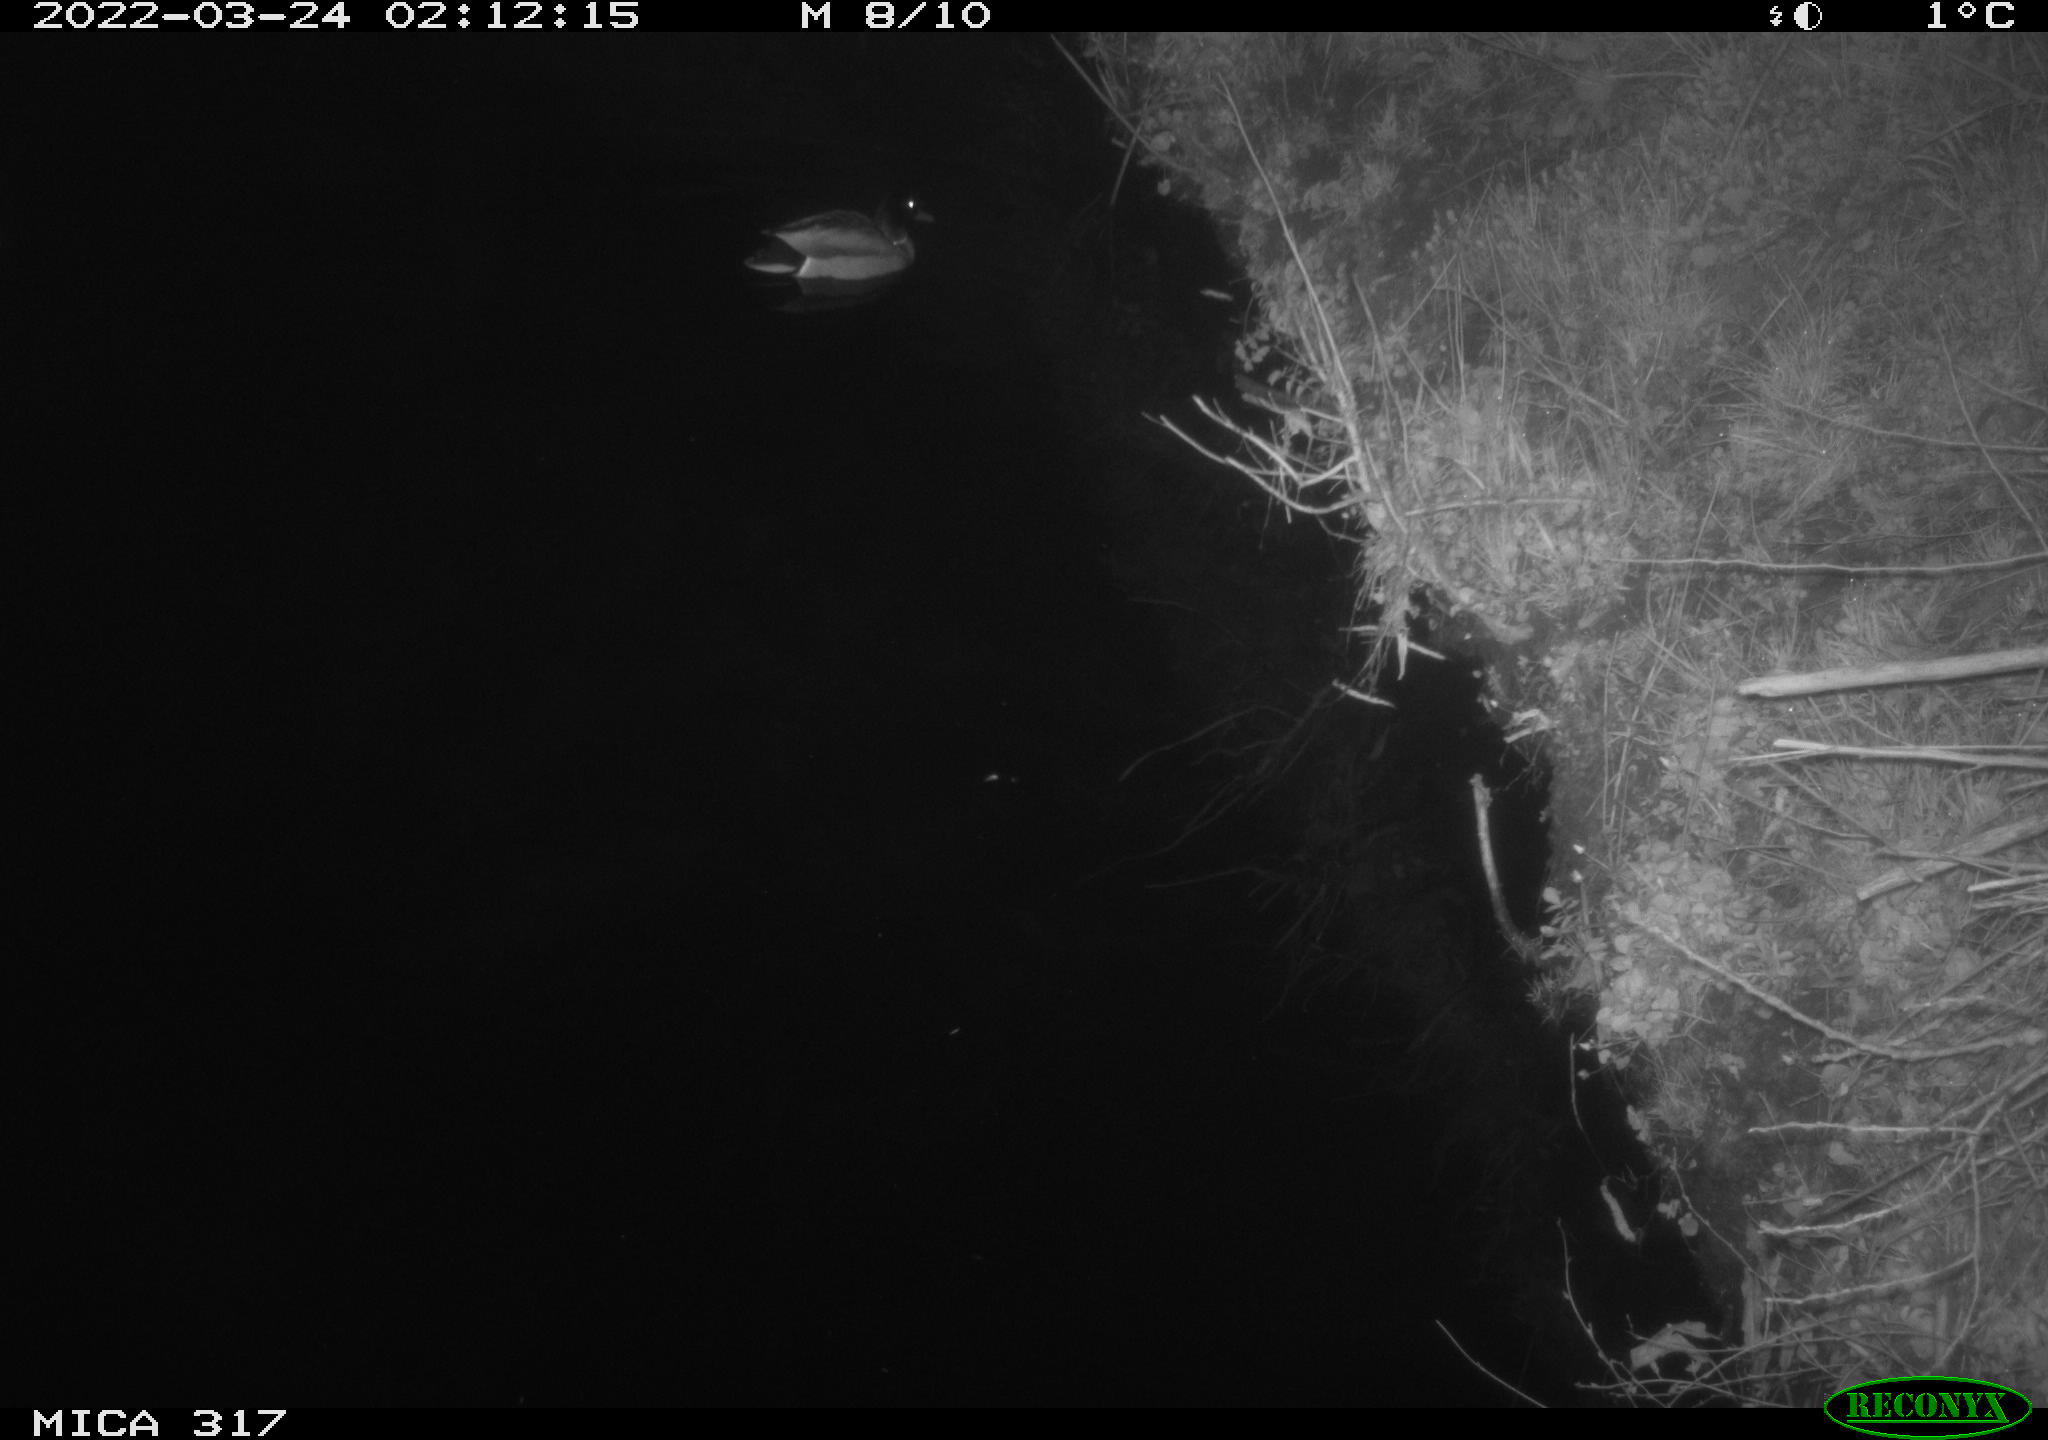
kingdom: Animalia
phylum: Chordata
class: Aves
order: Anseriformes
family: Anatidae
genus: Anas
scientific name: Anas platyrhynchos
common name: Mallard
